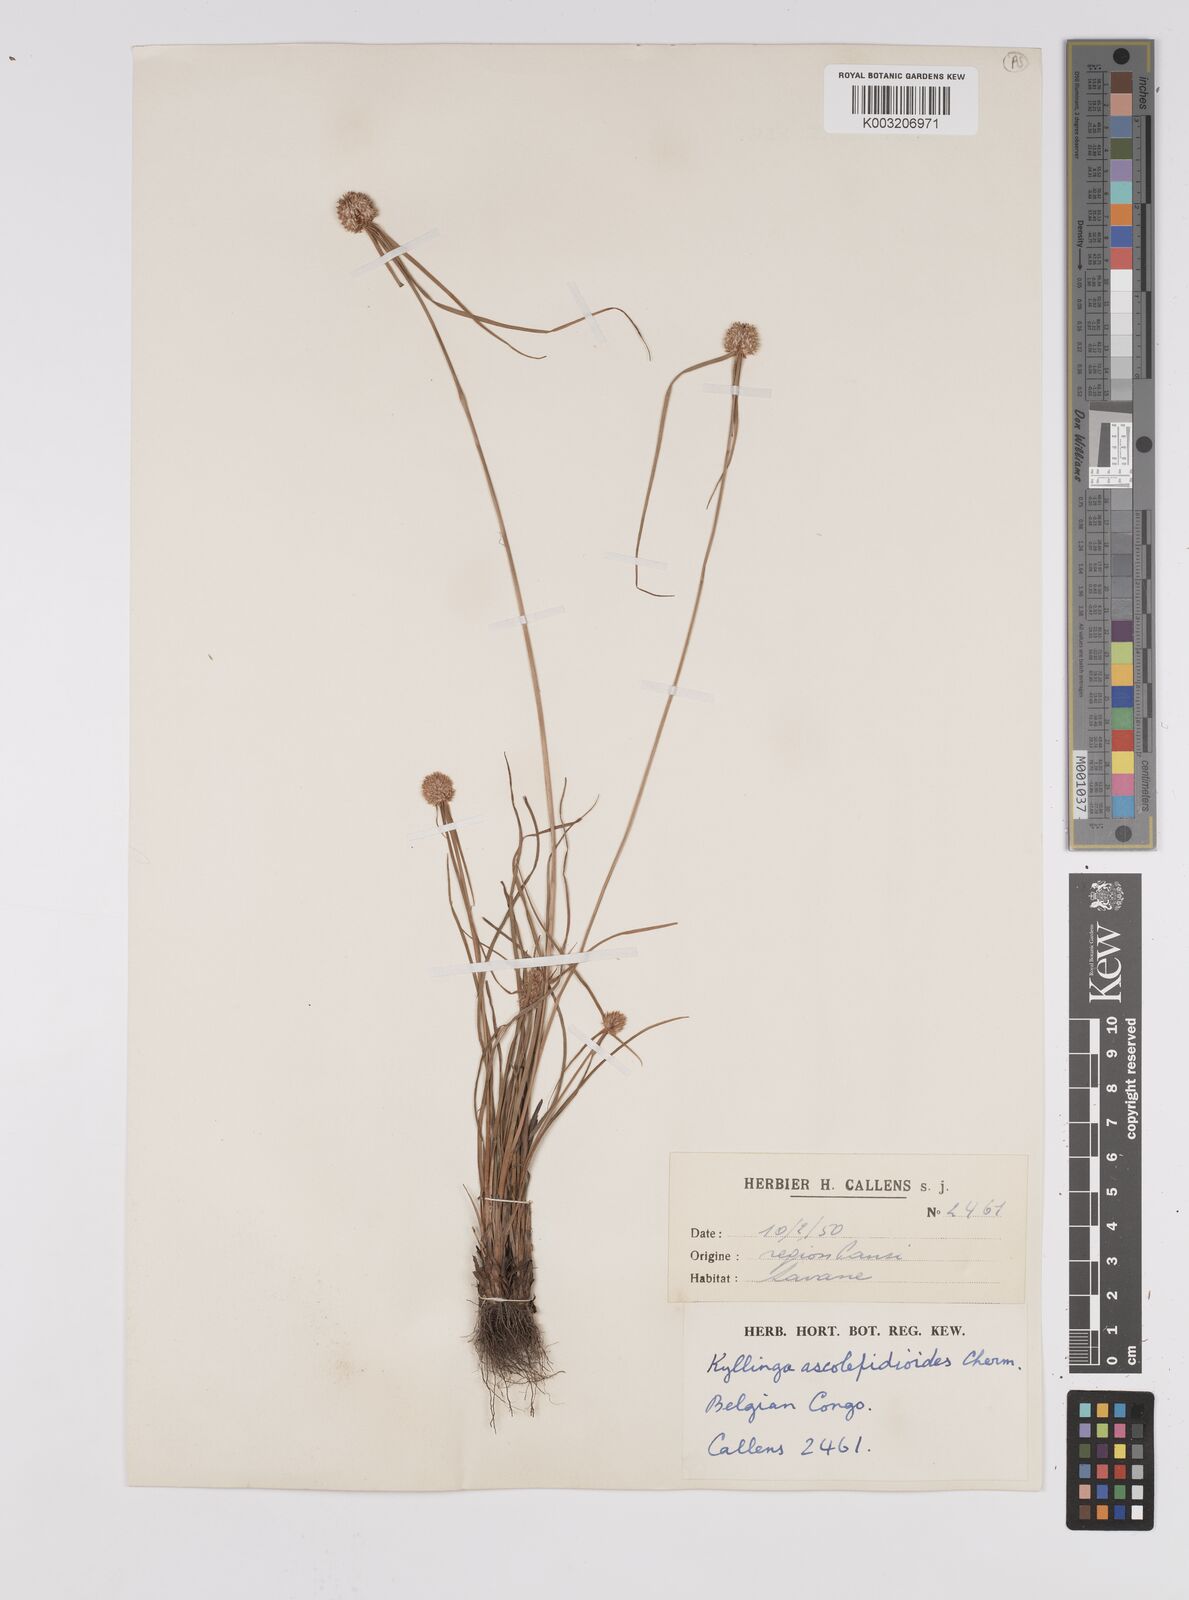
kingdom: Plantae
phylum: Tracheophyta
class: Liliopsida
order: Poales
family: Cyperaceae
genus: Cyperus
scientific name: Cyperus alatus
